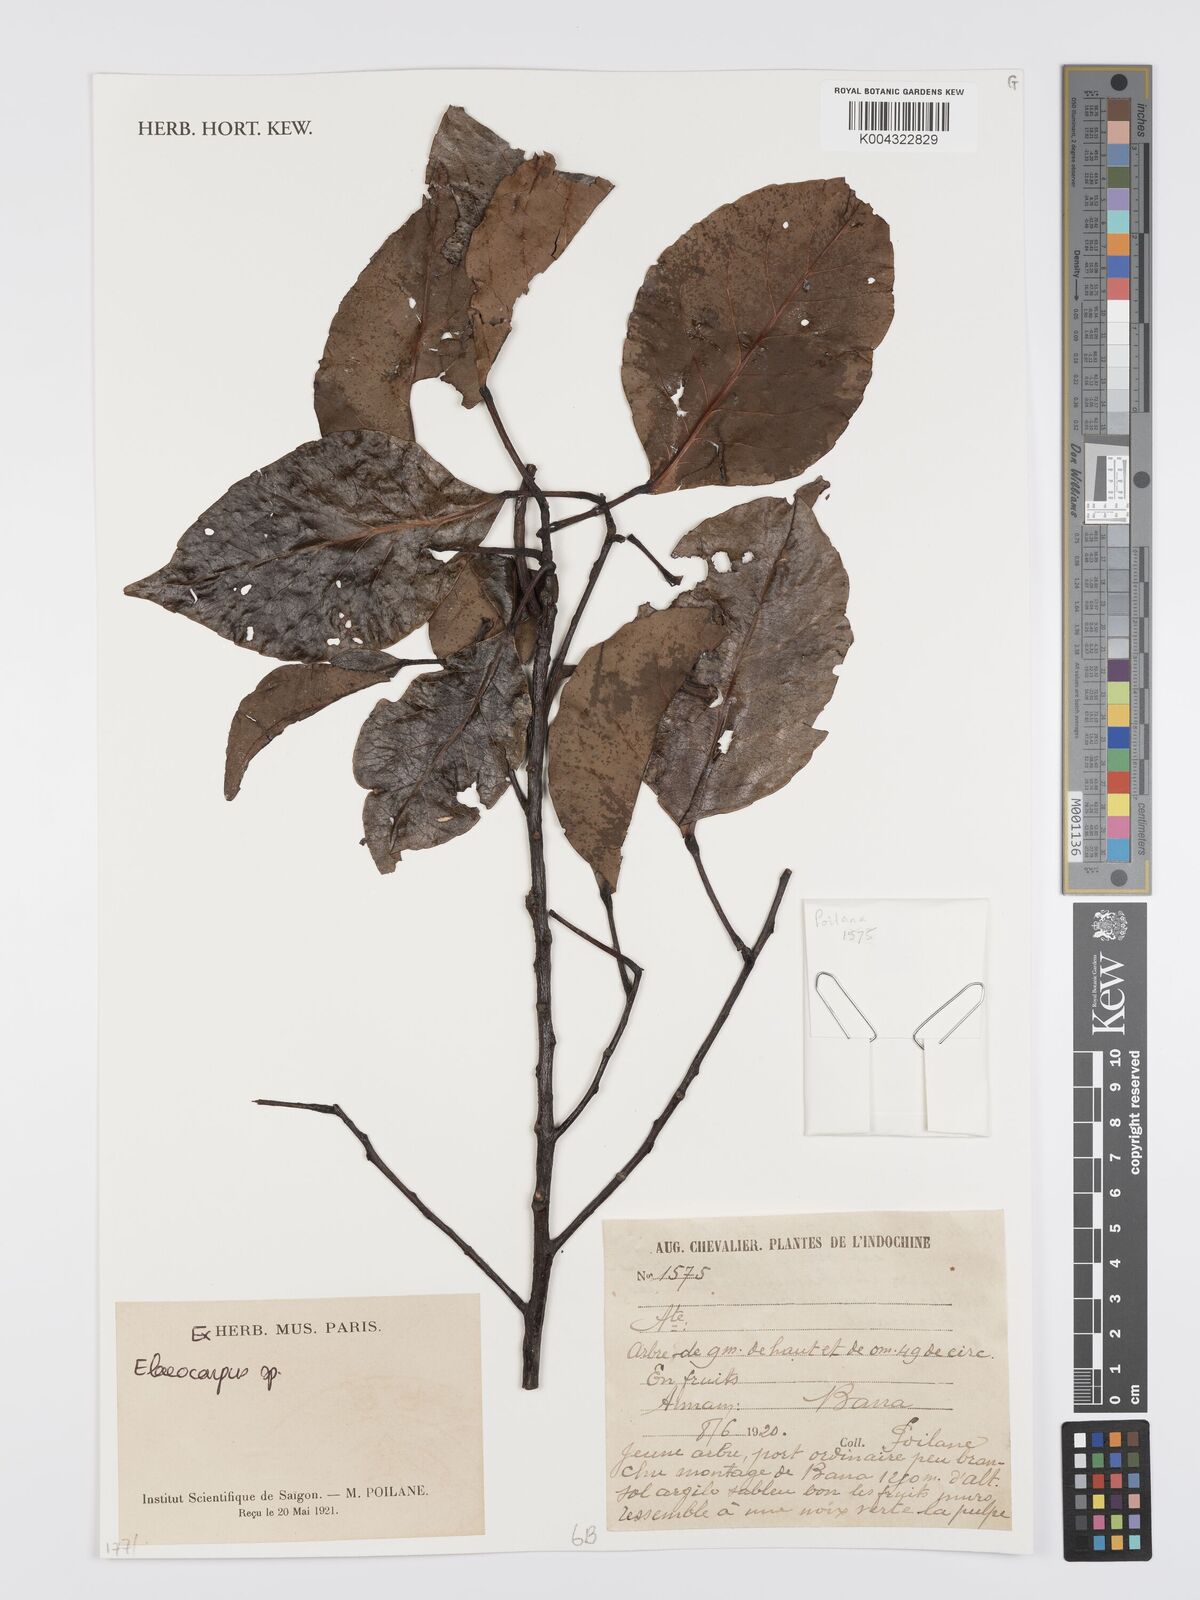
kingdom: Plantae
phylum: Tracheophyta
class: Magnoliopsida
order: Oxalidales
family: Elaeocarpaceae
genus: Elaeocarpus
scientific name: Elaeocarpus
